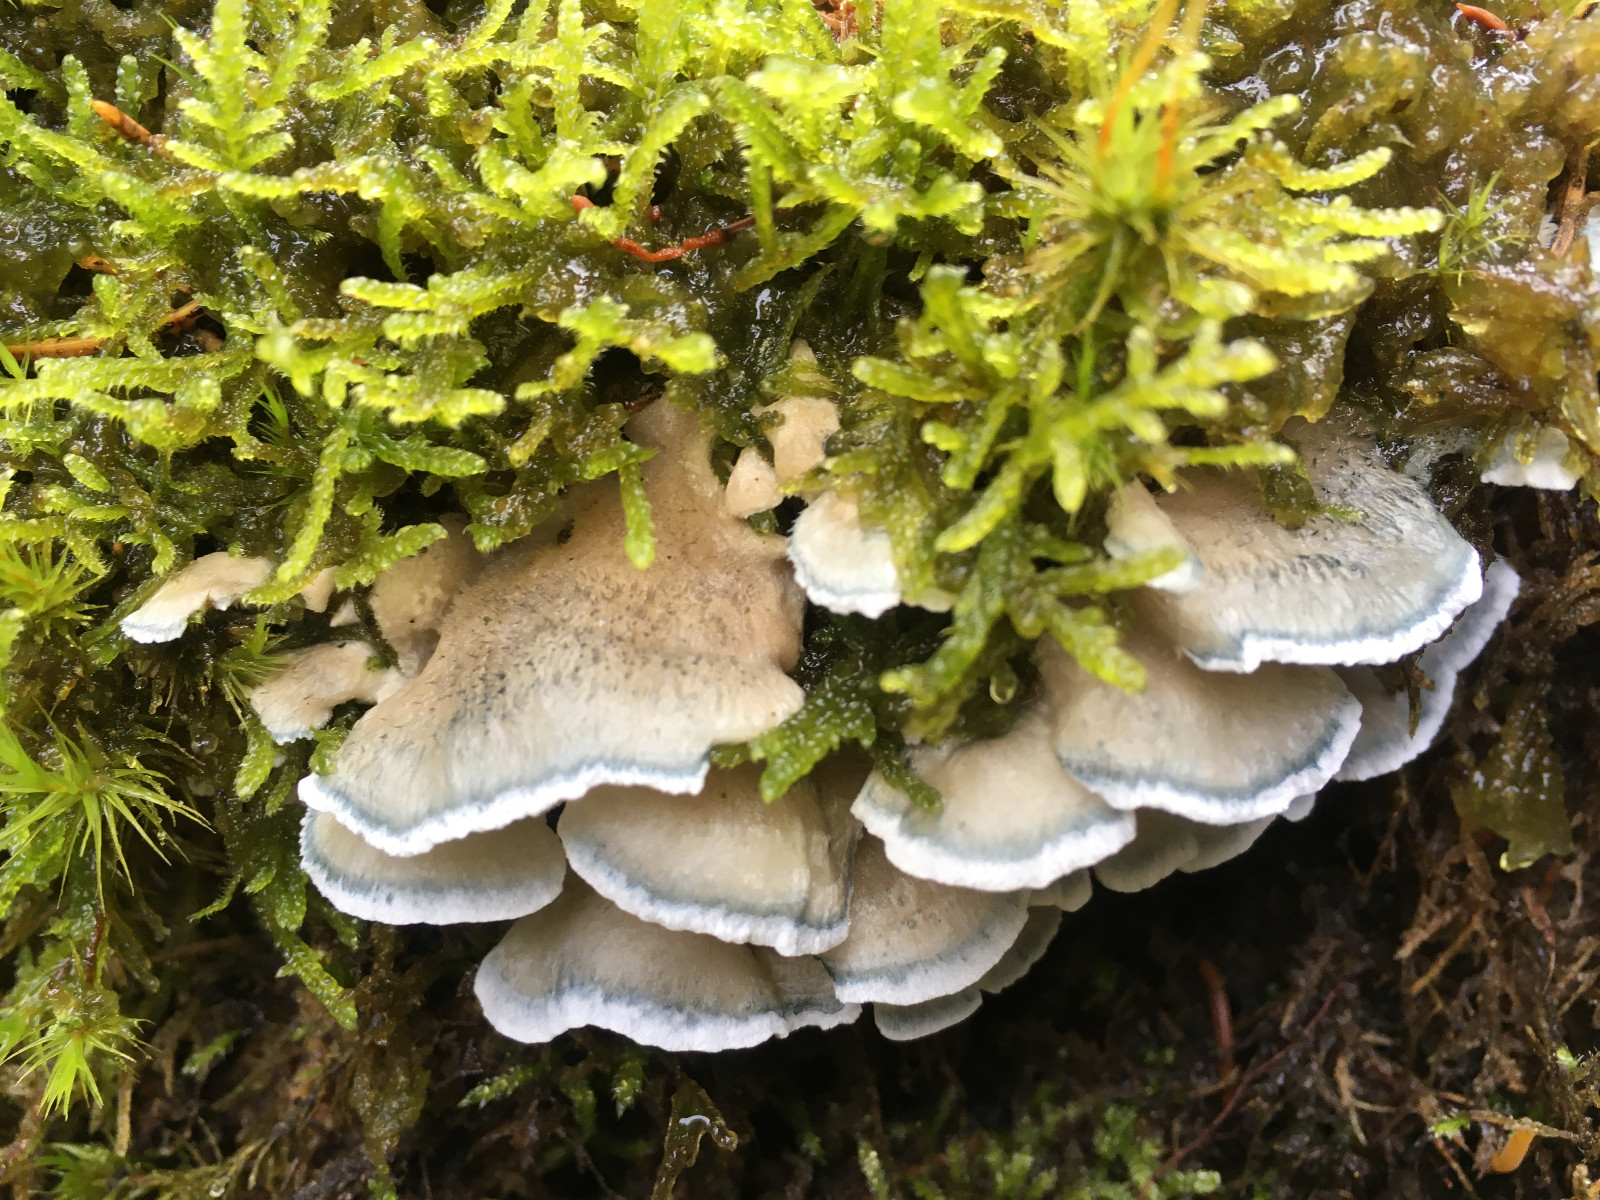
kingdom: Fungi
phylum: Basidiomycota
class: Agaricomycetes
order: Polyporales
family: Polyporaceae
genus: Cyanosporus
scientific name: Cyanosporus caesius
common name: blålig kødporesvamp
